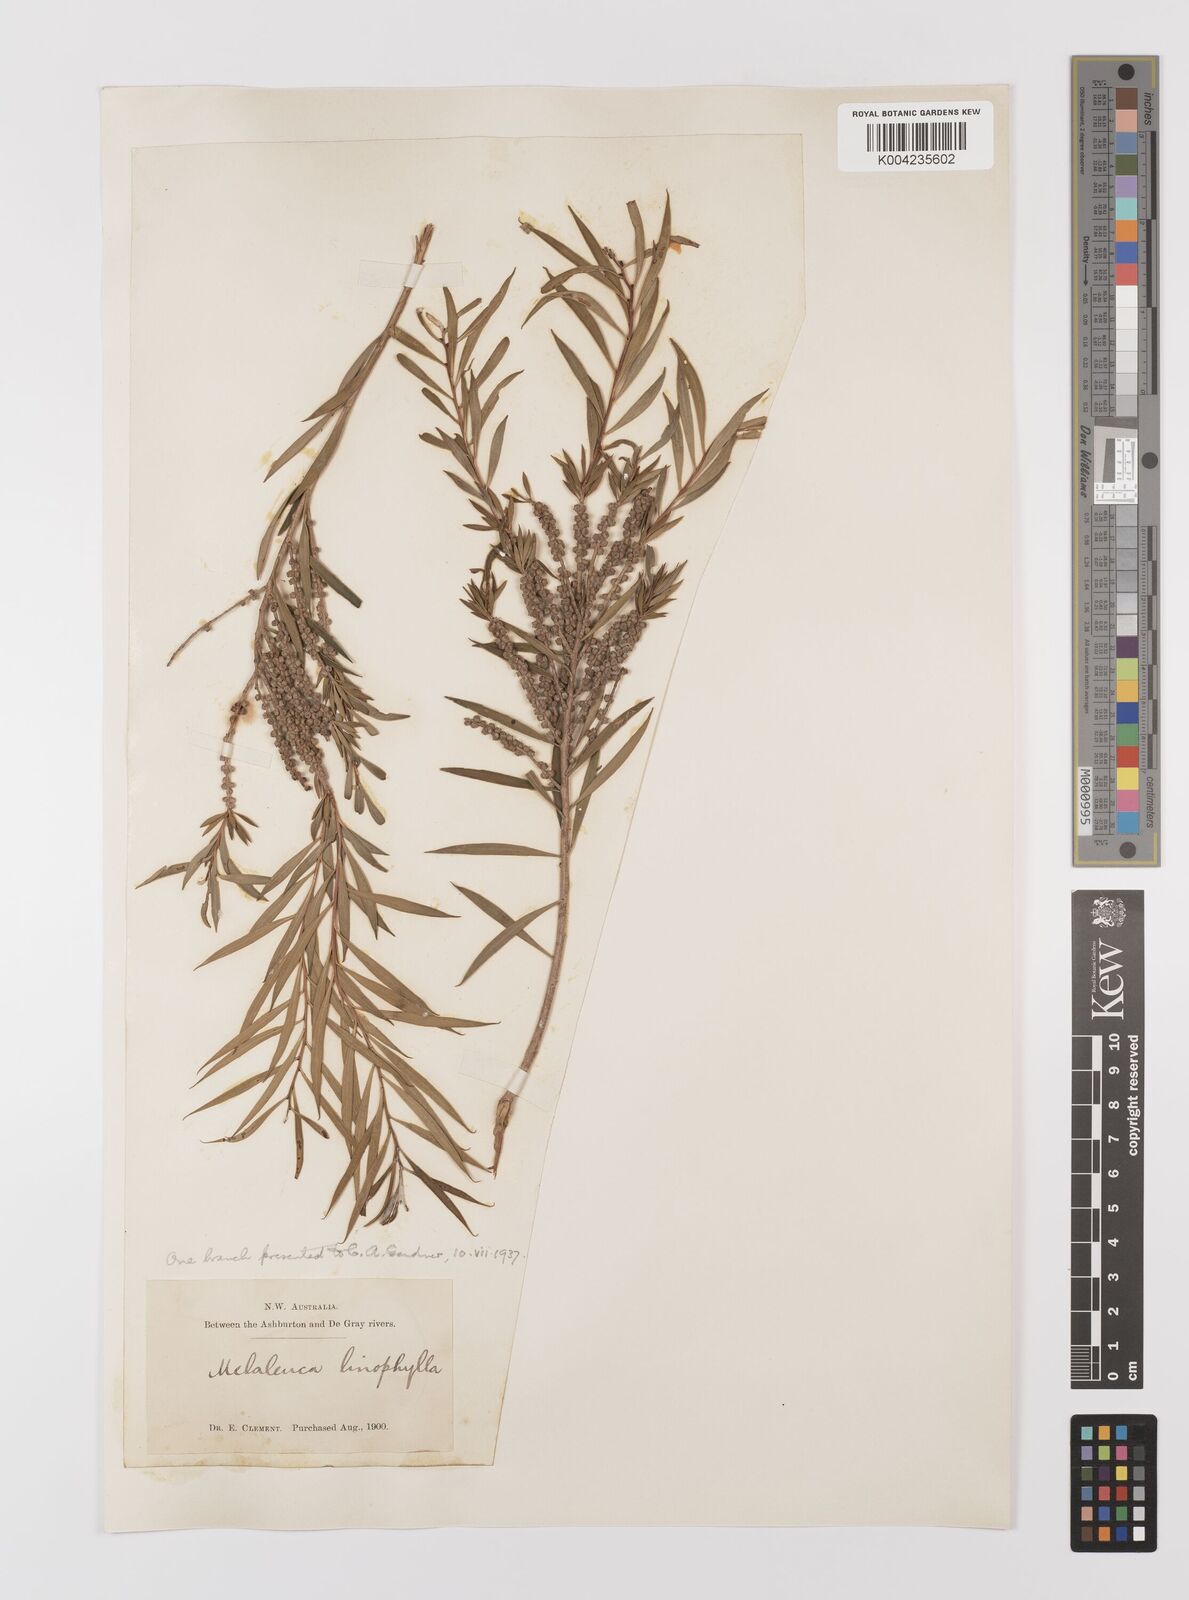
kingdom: Plantae
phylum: Tracheophyta
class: Magnoliopsida
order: Myrtales
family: Myrtaceae
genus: Melaleuca
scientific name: Melaleuca linophylla
